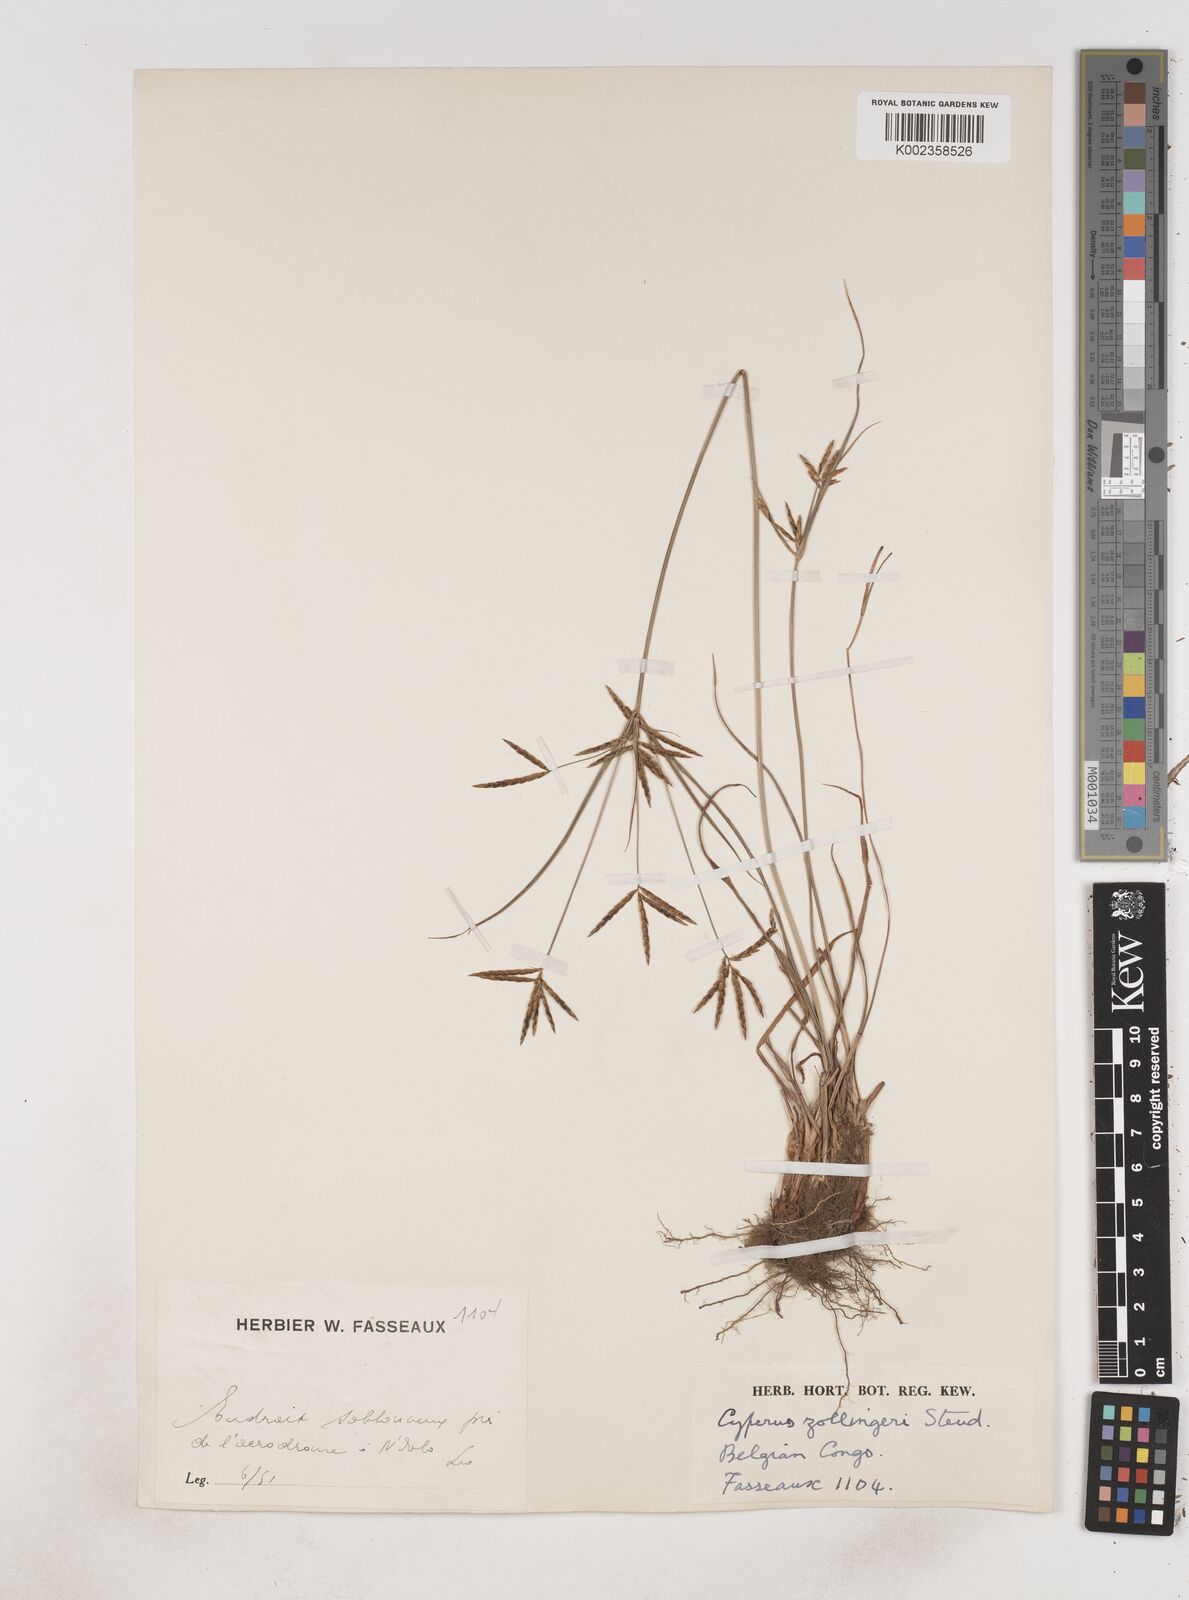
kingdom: Plantae
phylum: Tracheophyta
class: Liliopsida
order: Poales
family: Cyperaceae
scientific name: Cyperaceae
